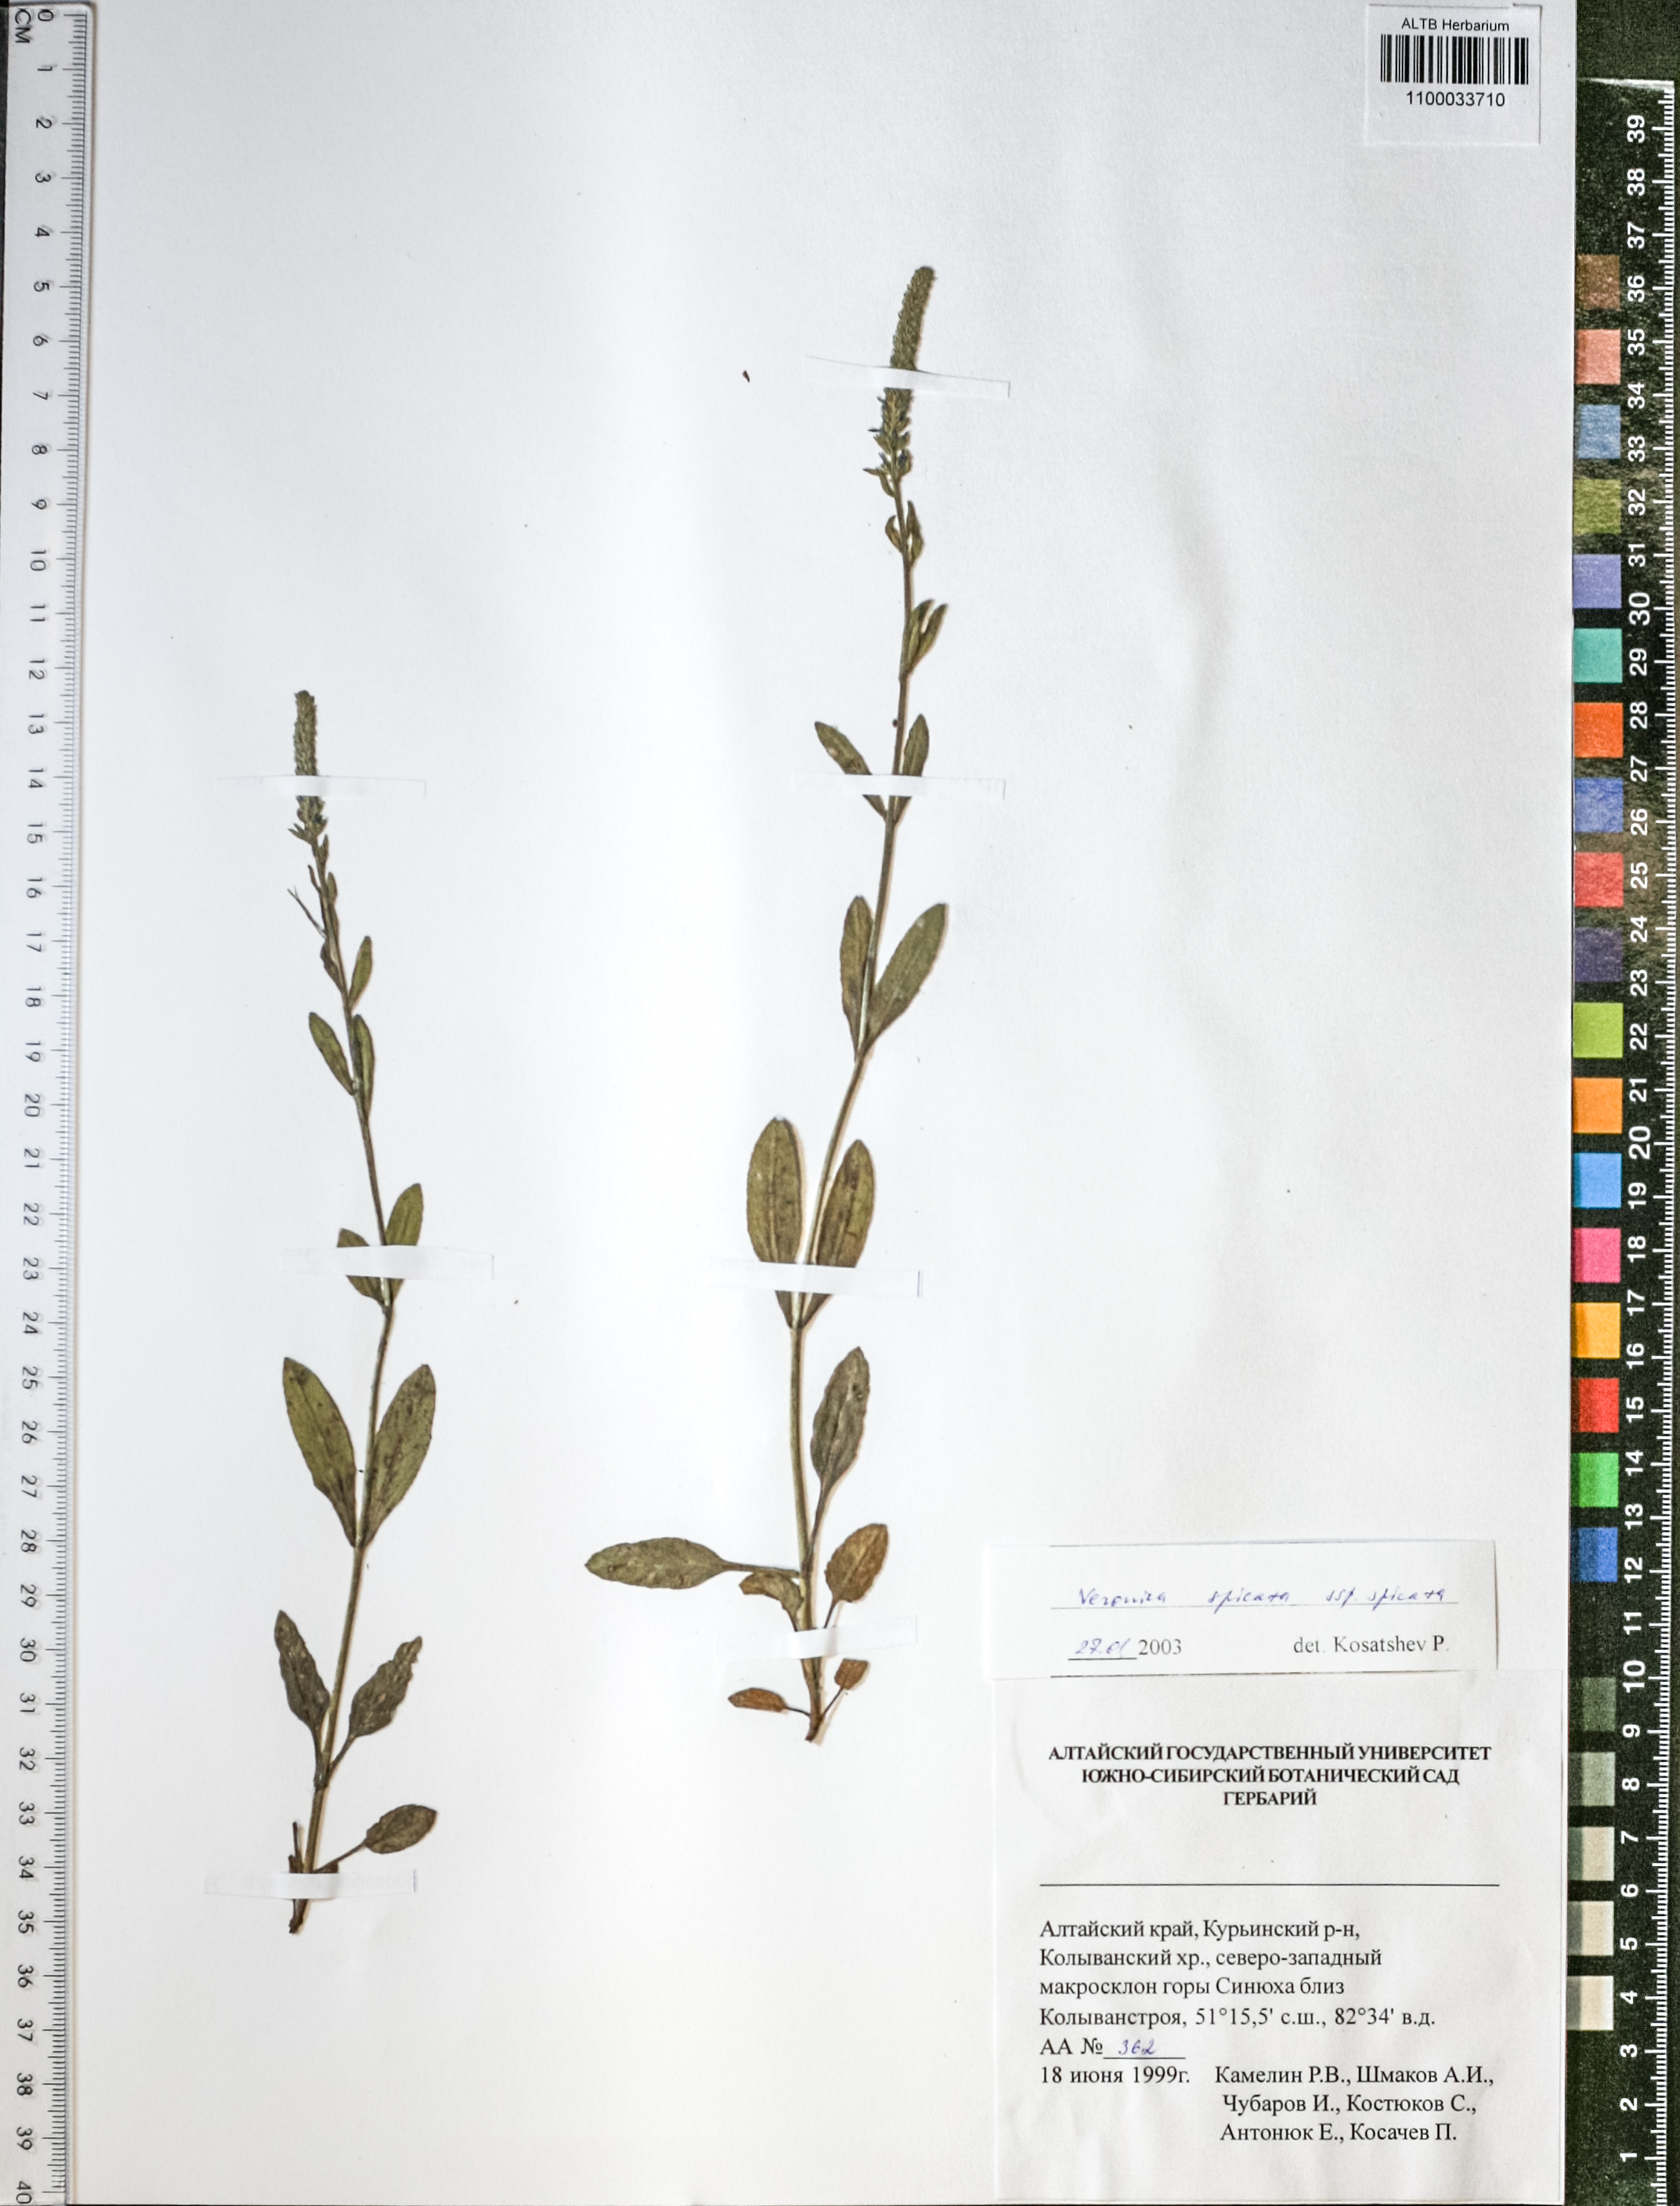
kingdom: Plantae
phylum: Tracheophyta
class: Magnoliopsida
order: Lamiales
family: Plantaginaceae
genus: Veronica
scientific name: Veronica spicata
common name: Spiked speedwell
